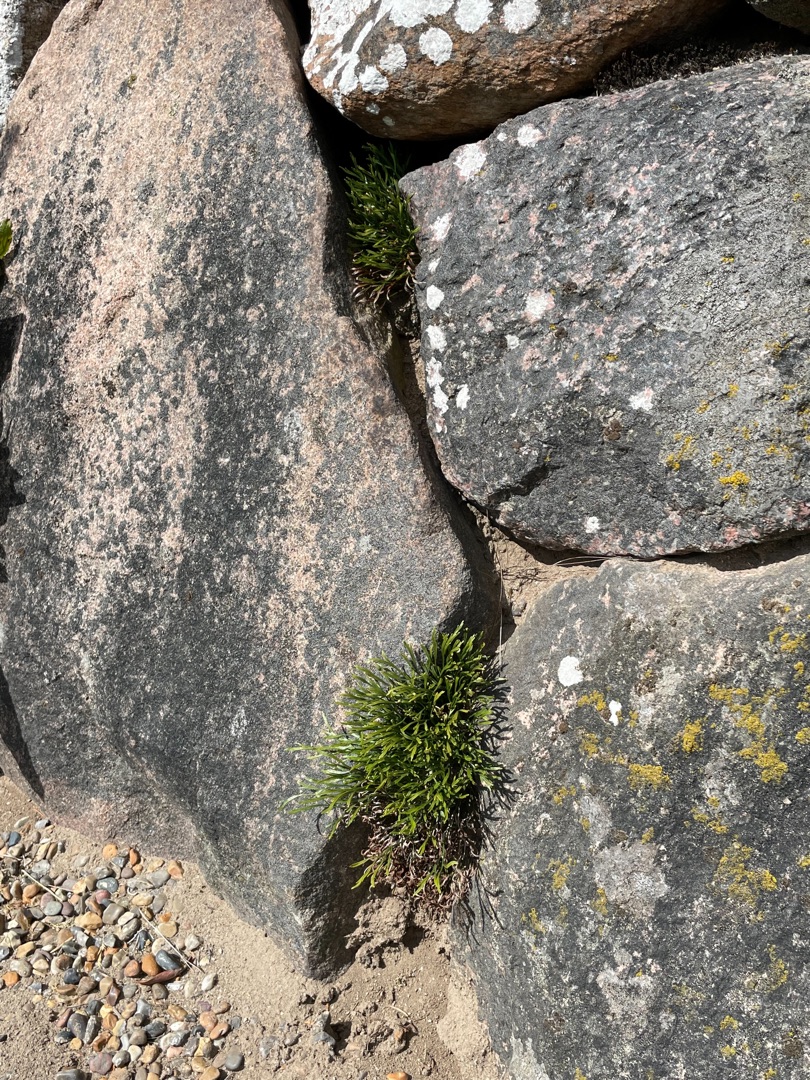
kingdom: Plantae
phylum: Tracheophyta
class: Polypodiopsida
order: Polypodiales
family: Aspleniaceae
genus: Asplenium
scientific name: Asplenium septentrionale
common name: Nordisk radeløv
